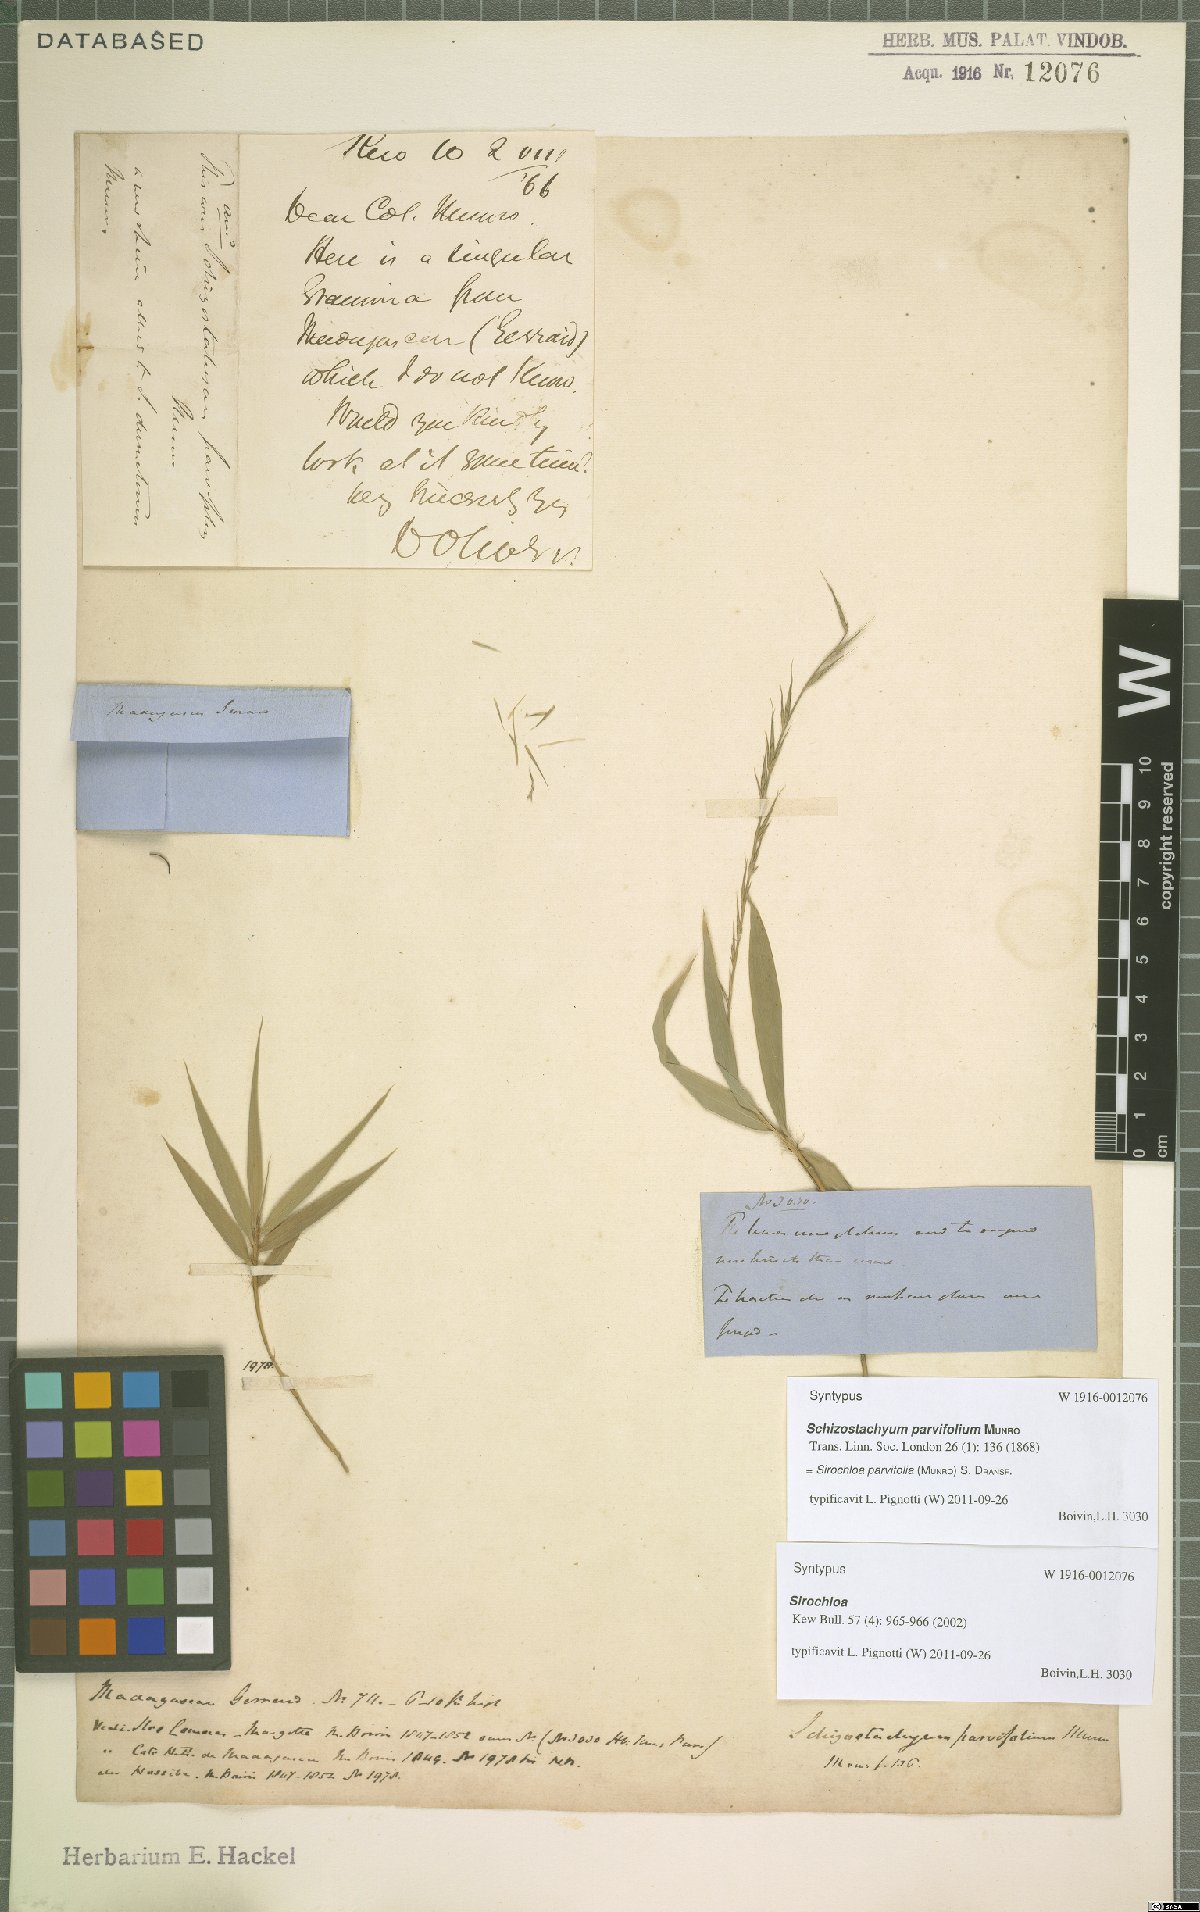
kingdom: Plantae
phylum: Tracheophyta
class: Liliopsida
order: Poales
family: Poaceae
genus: Sirochloa
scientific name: Sirochloa parvifolia
